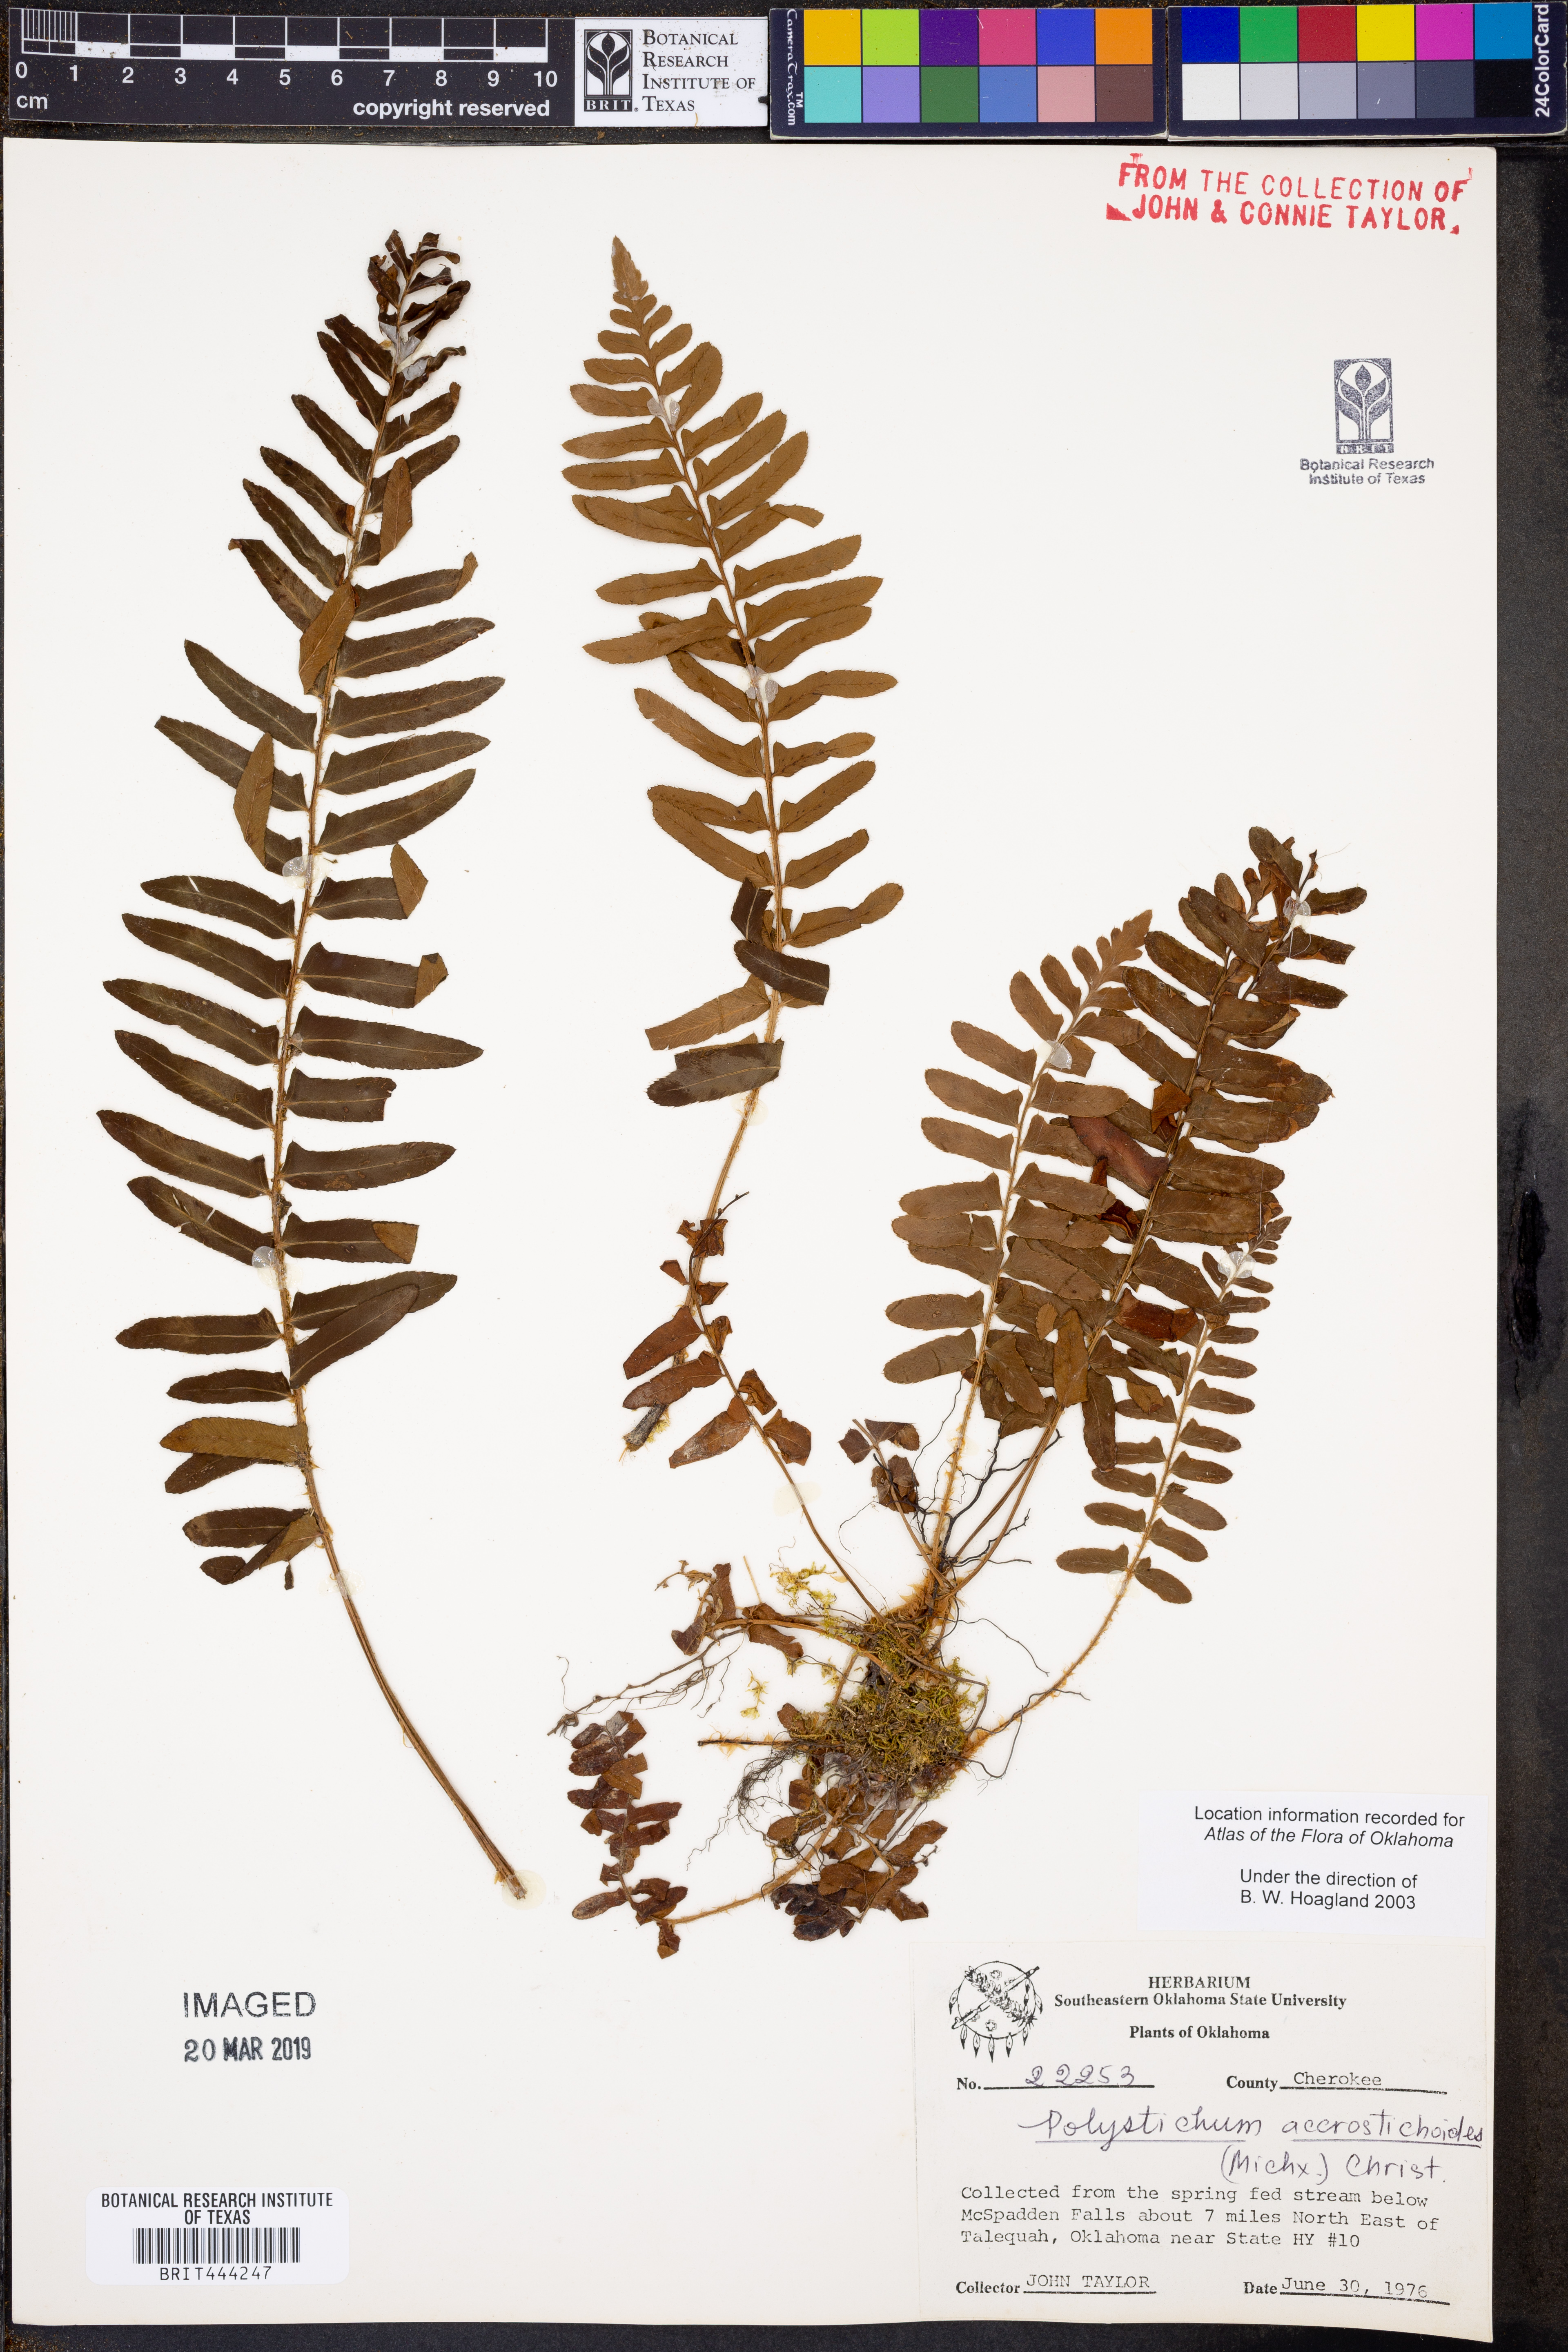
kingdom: Plantae
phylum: Tracheophyta
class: Polypodiopsida
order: Polypodiales
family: Dryopteridaceae
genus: Polystichum
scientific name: Polystichum acrostichoides
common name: Christmas fern
